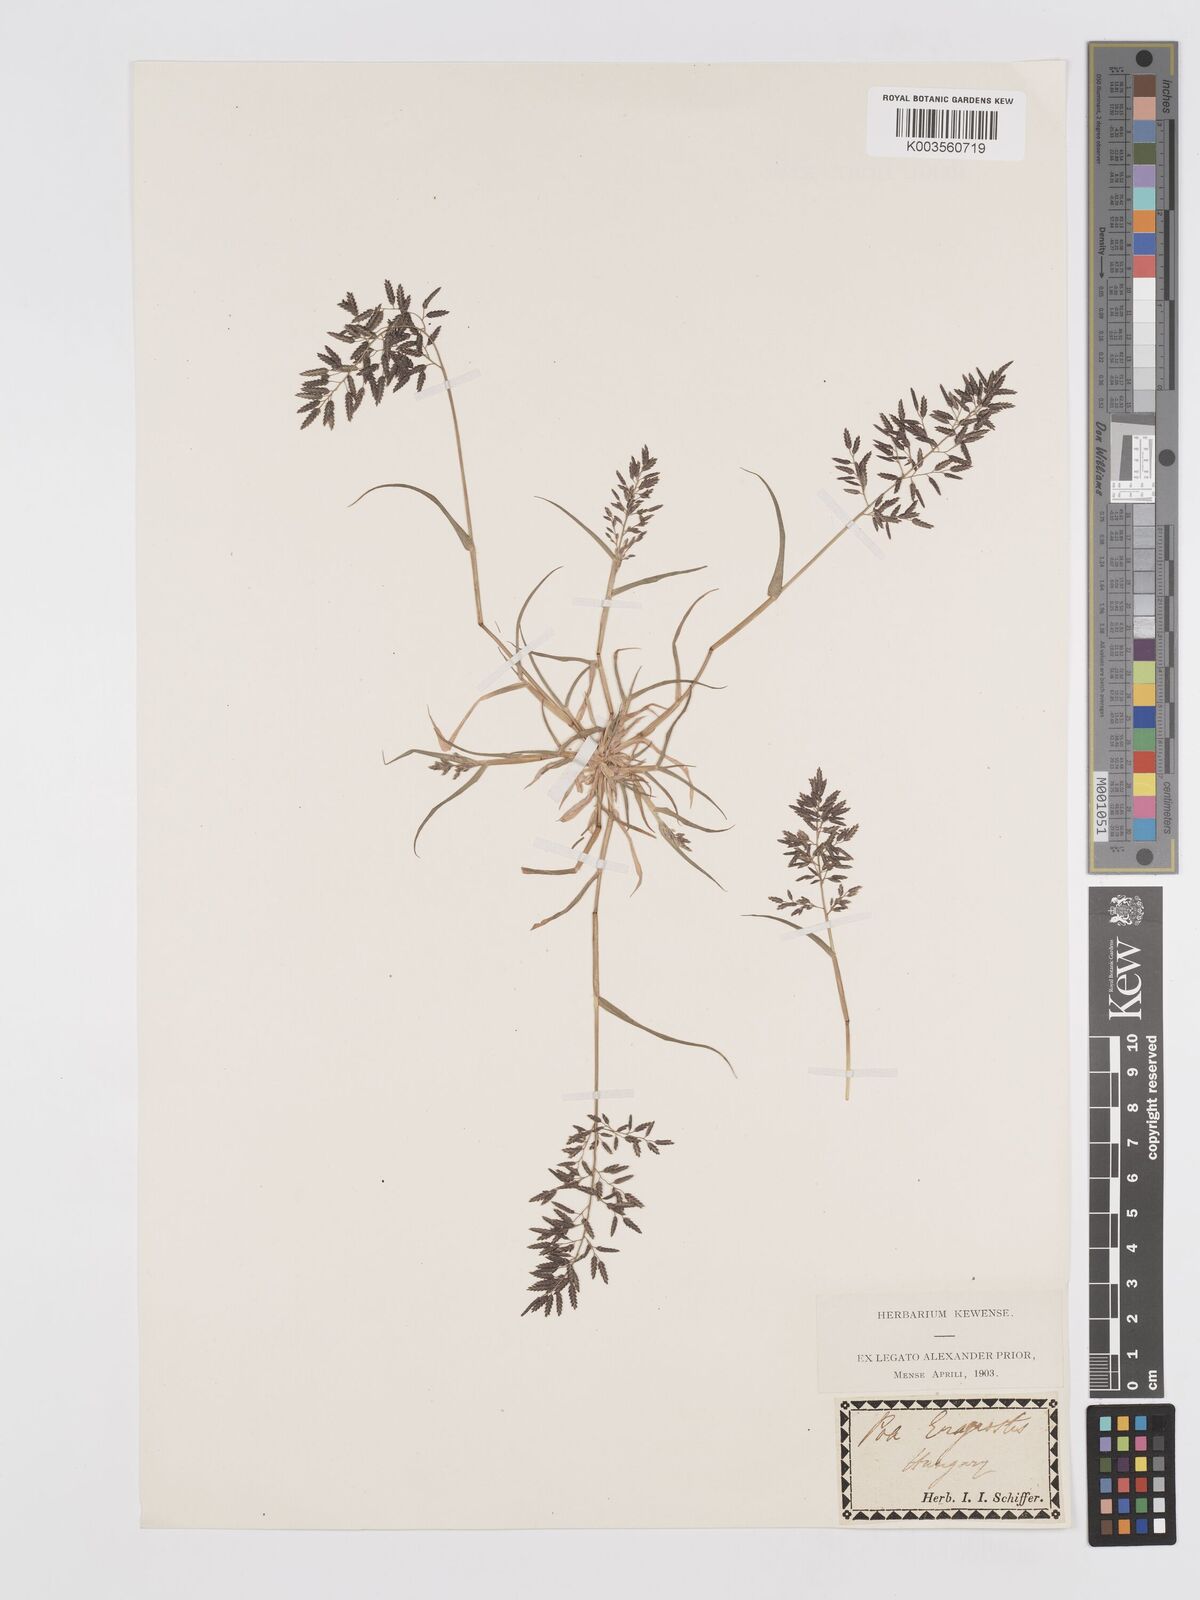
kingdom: Plantae
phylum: Tracheophyta
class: Liliopsida
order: Poales
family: Poaceae
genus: Eragrostis
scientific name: Eragrostis minor
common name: Small love-grass
